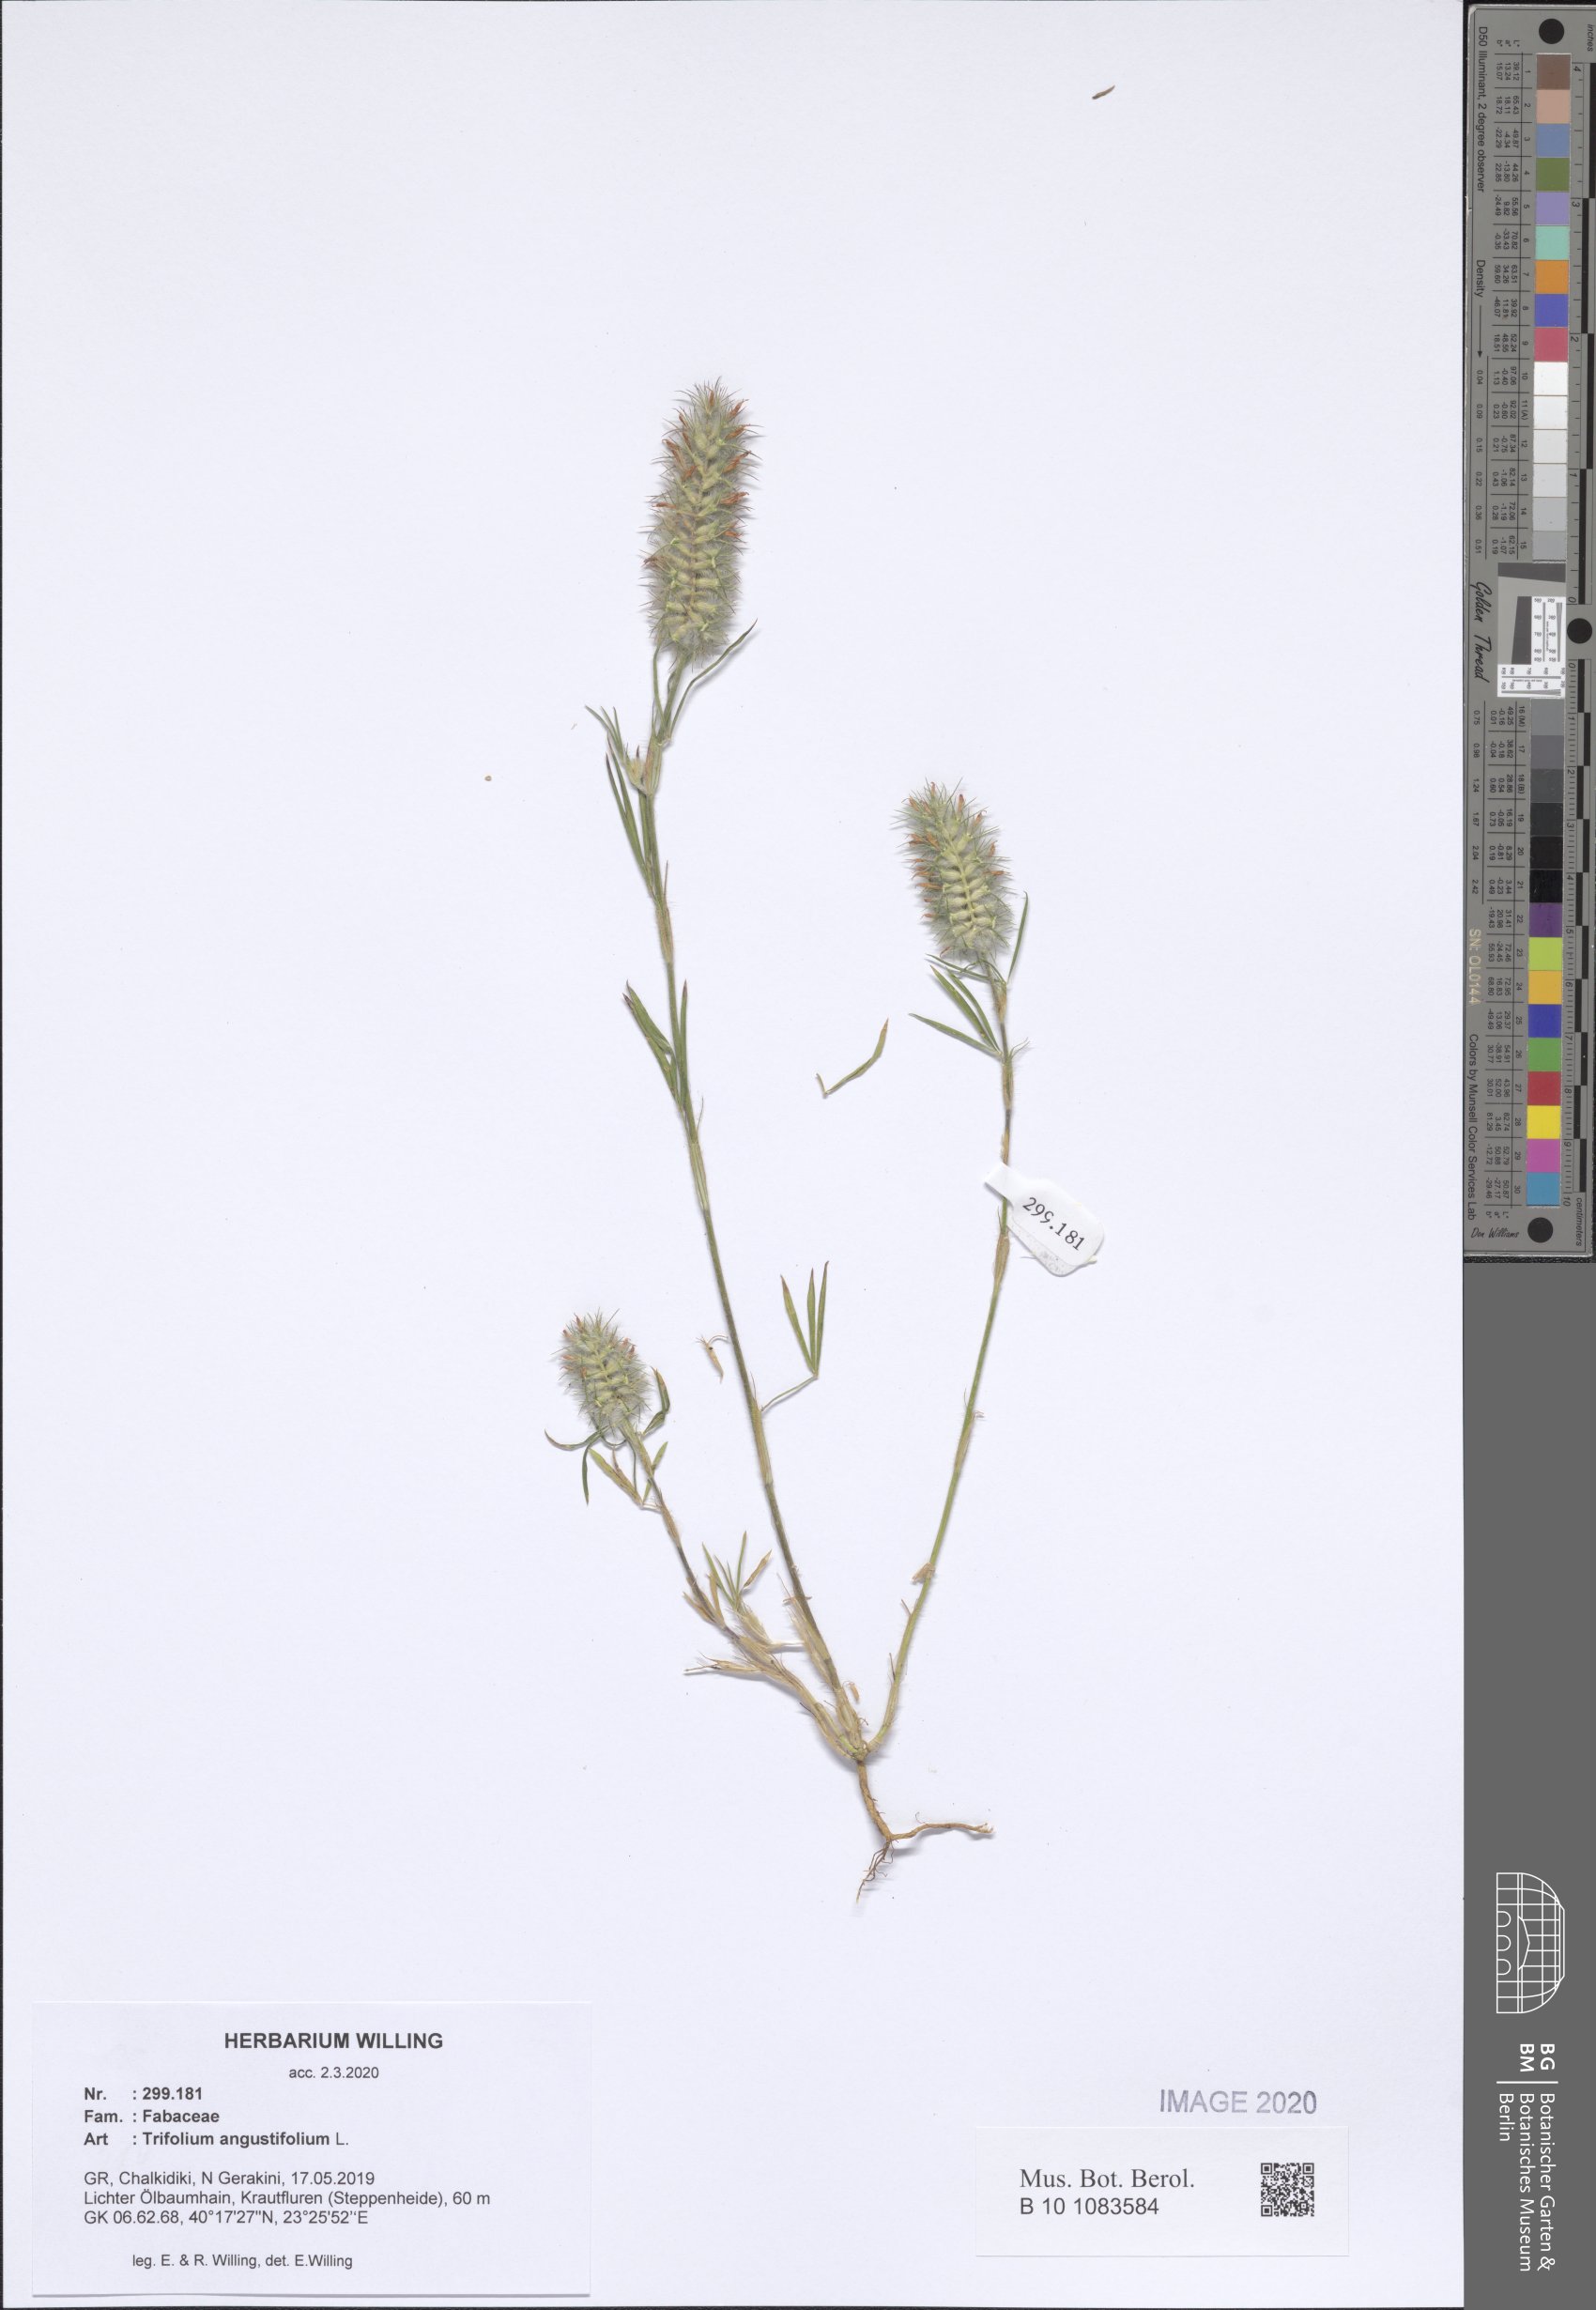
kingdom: Plantae
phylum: Tracheophyta
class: Magnoliopsida
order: Fabales
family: Fabaceae
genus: Trifolium
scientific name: Trifolium angustifolium
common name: Narrow clover
